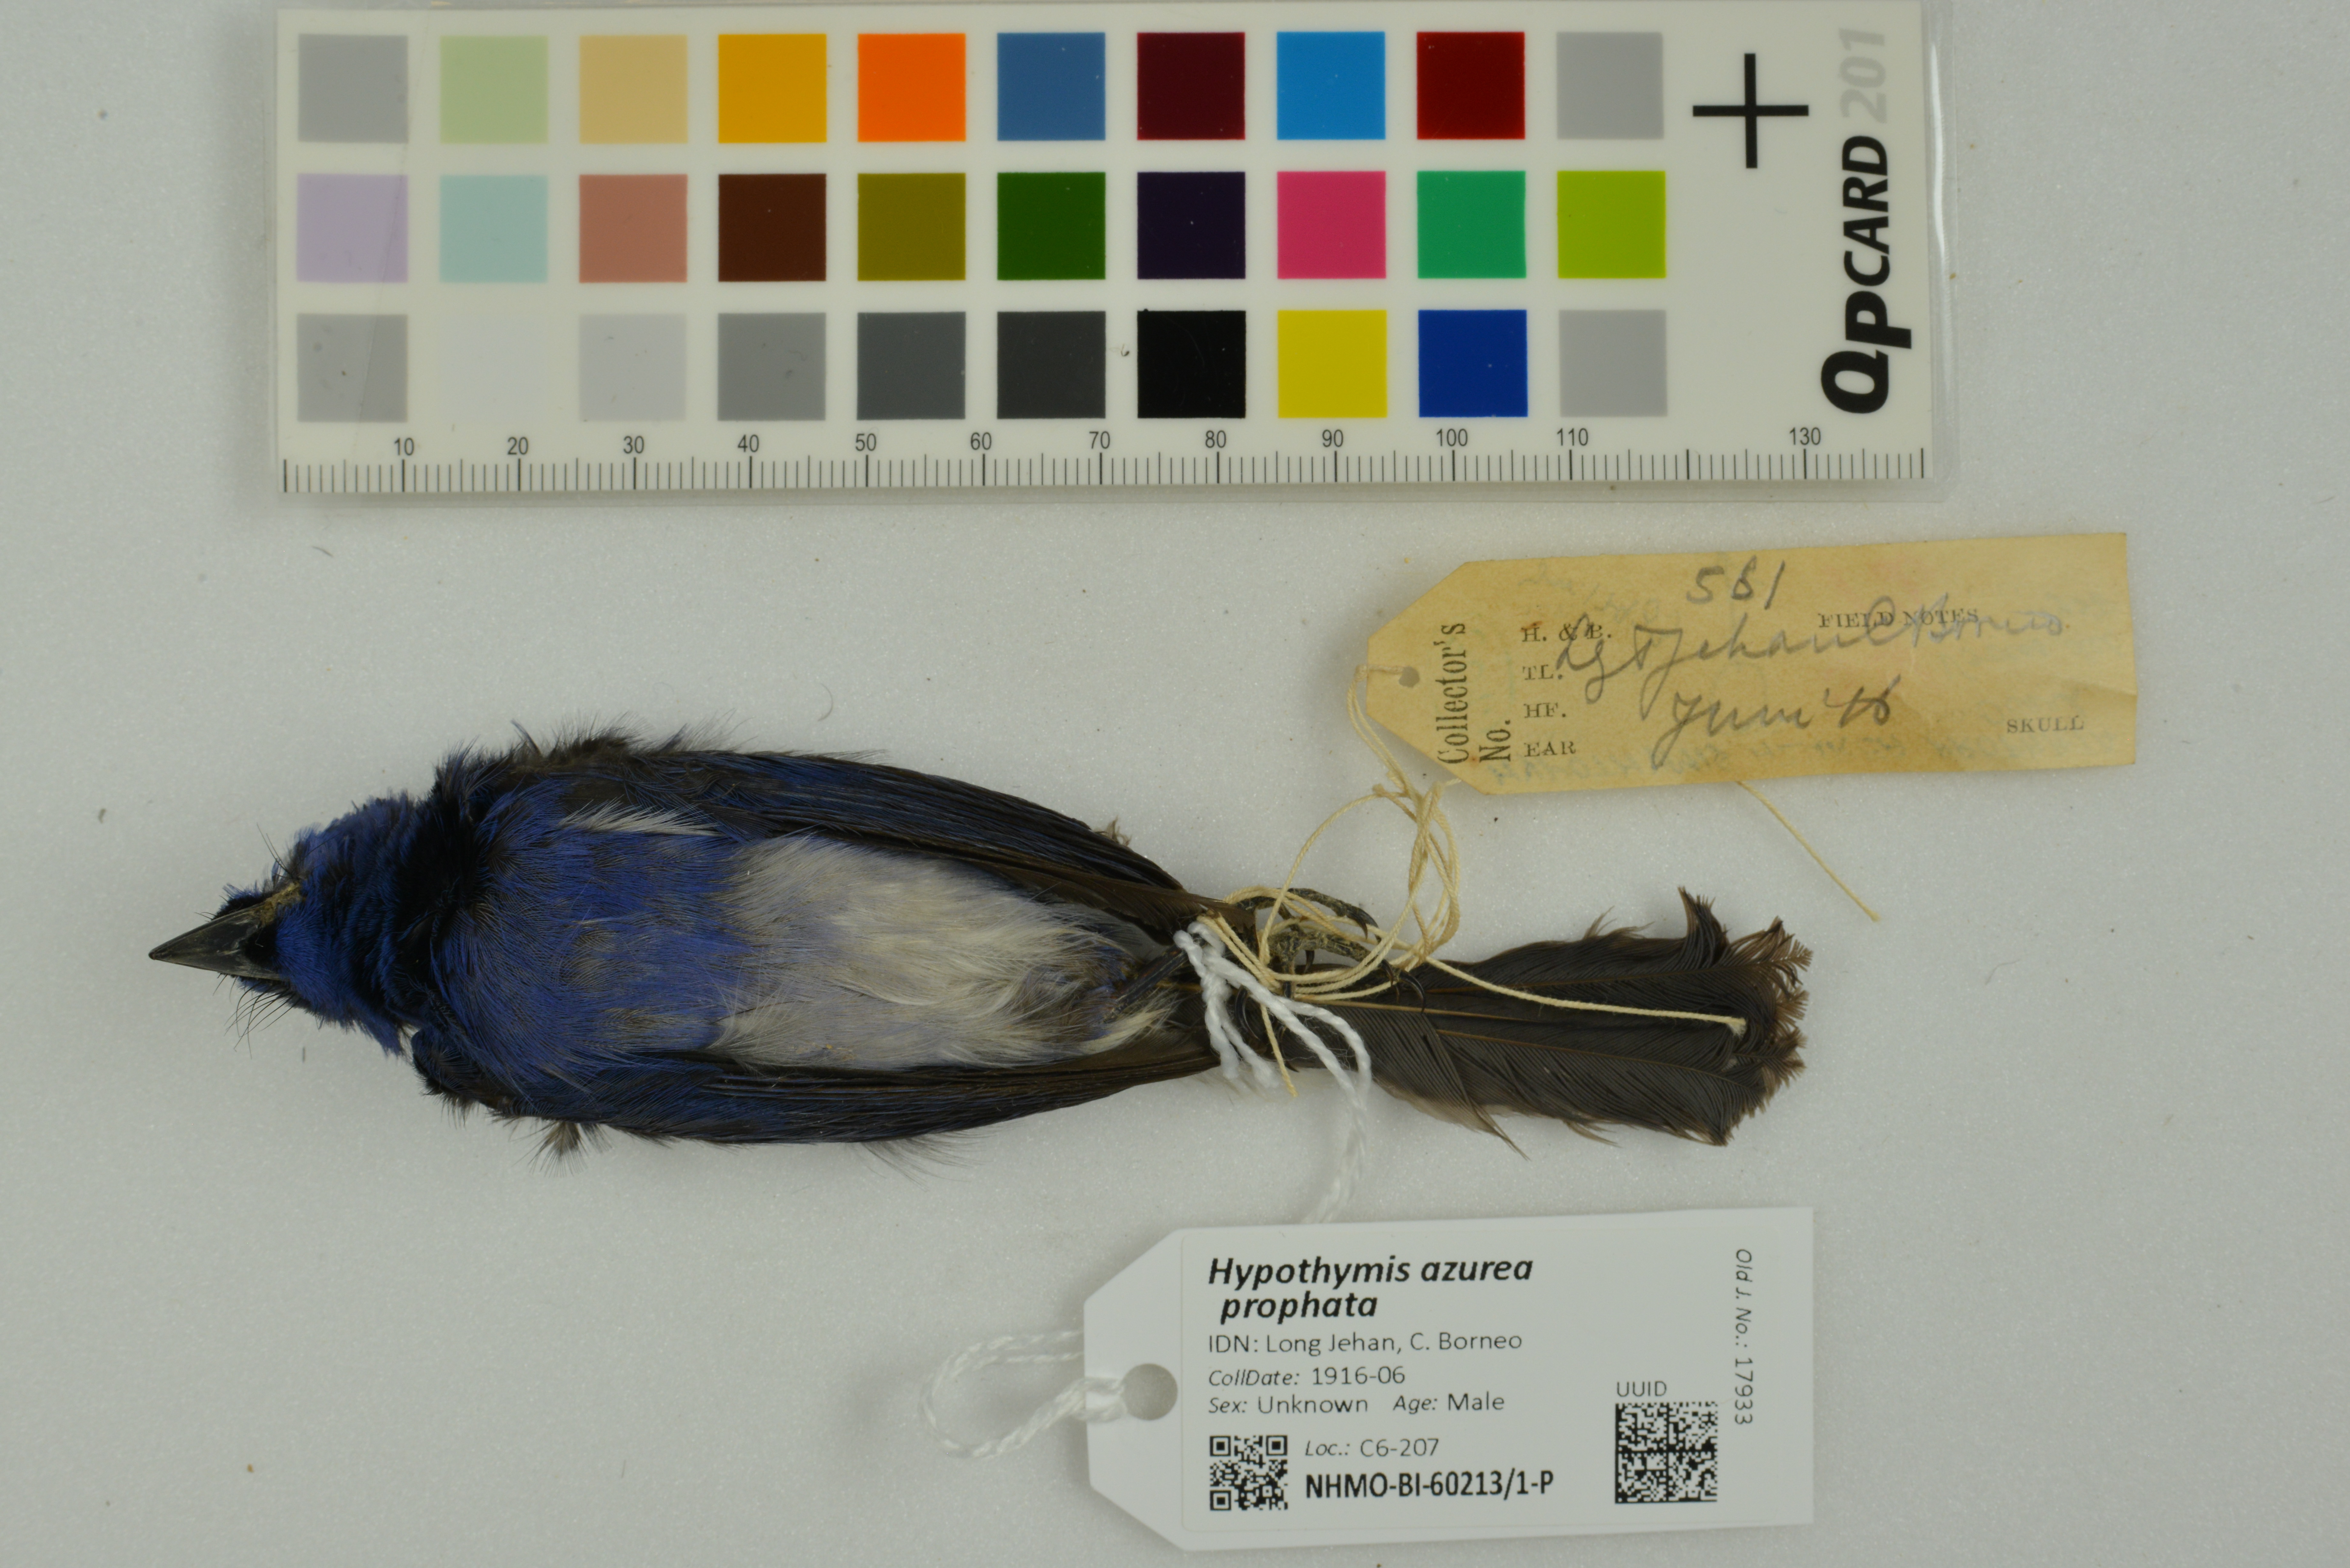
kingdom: Animalia
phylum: Chordata
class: Aves
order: Passeriformes
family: Monarchidae
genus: Hypothymis
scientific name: Hypothymis azurea
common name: Black-naped monarch
